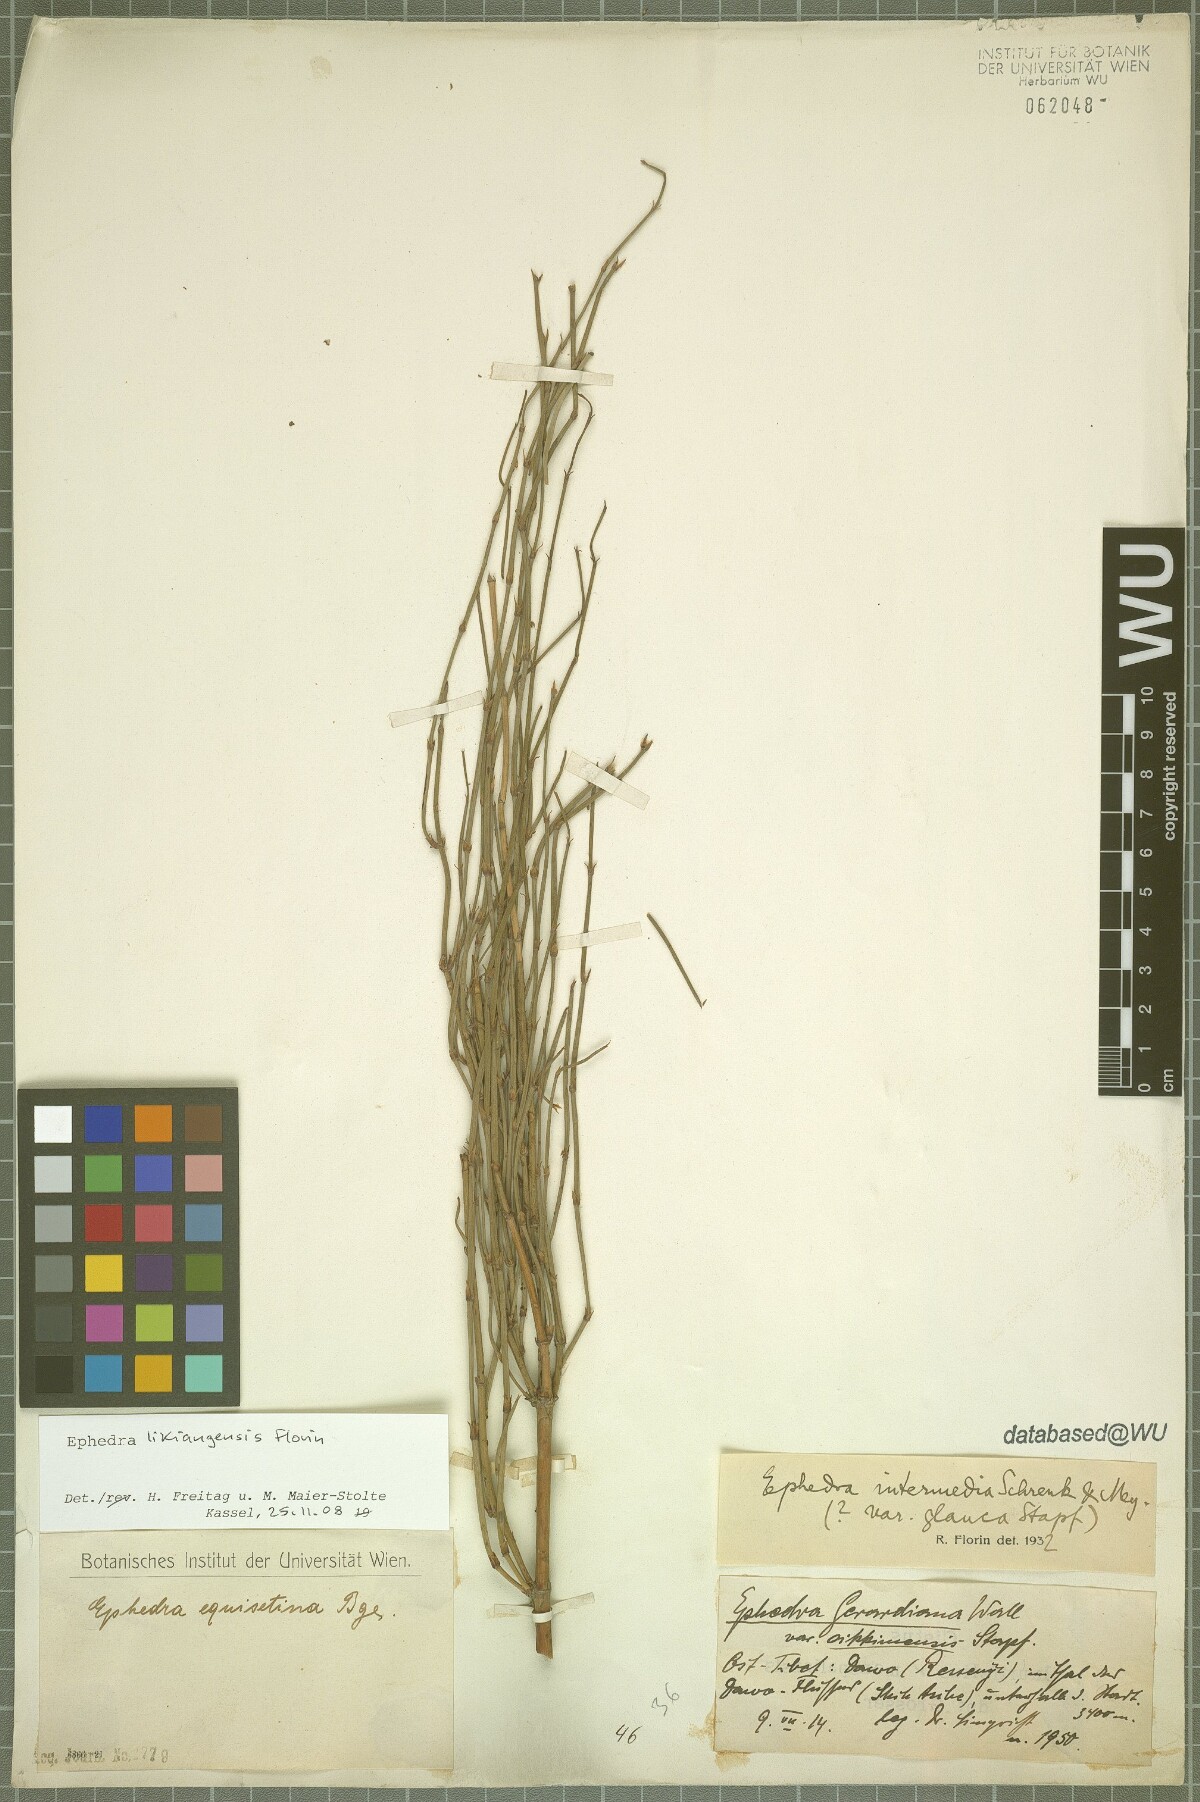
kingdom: Plantae
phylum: Tracheophyta
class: Gnetopsida
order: Ephedrales
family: Ephedraceae
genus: Ephedra
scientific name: Ephedra likiangensis
